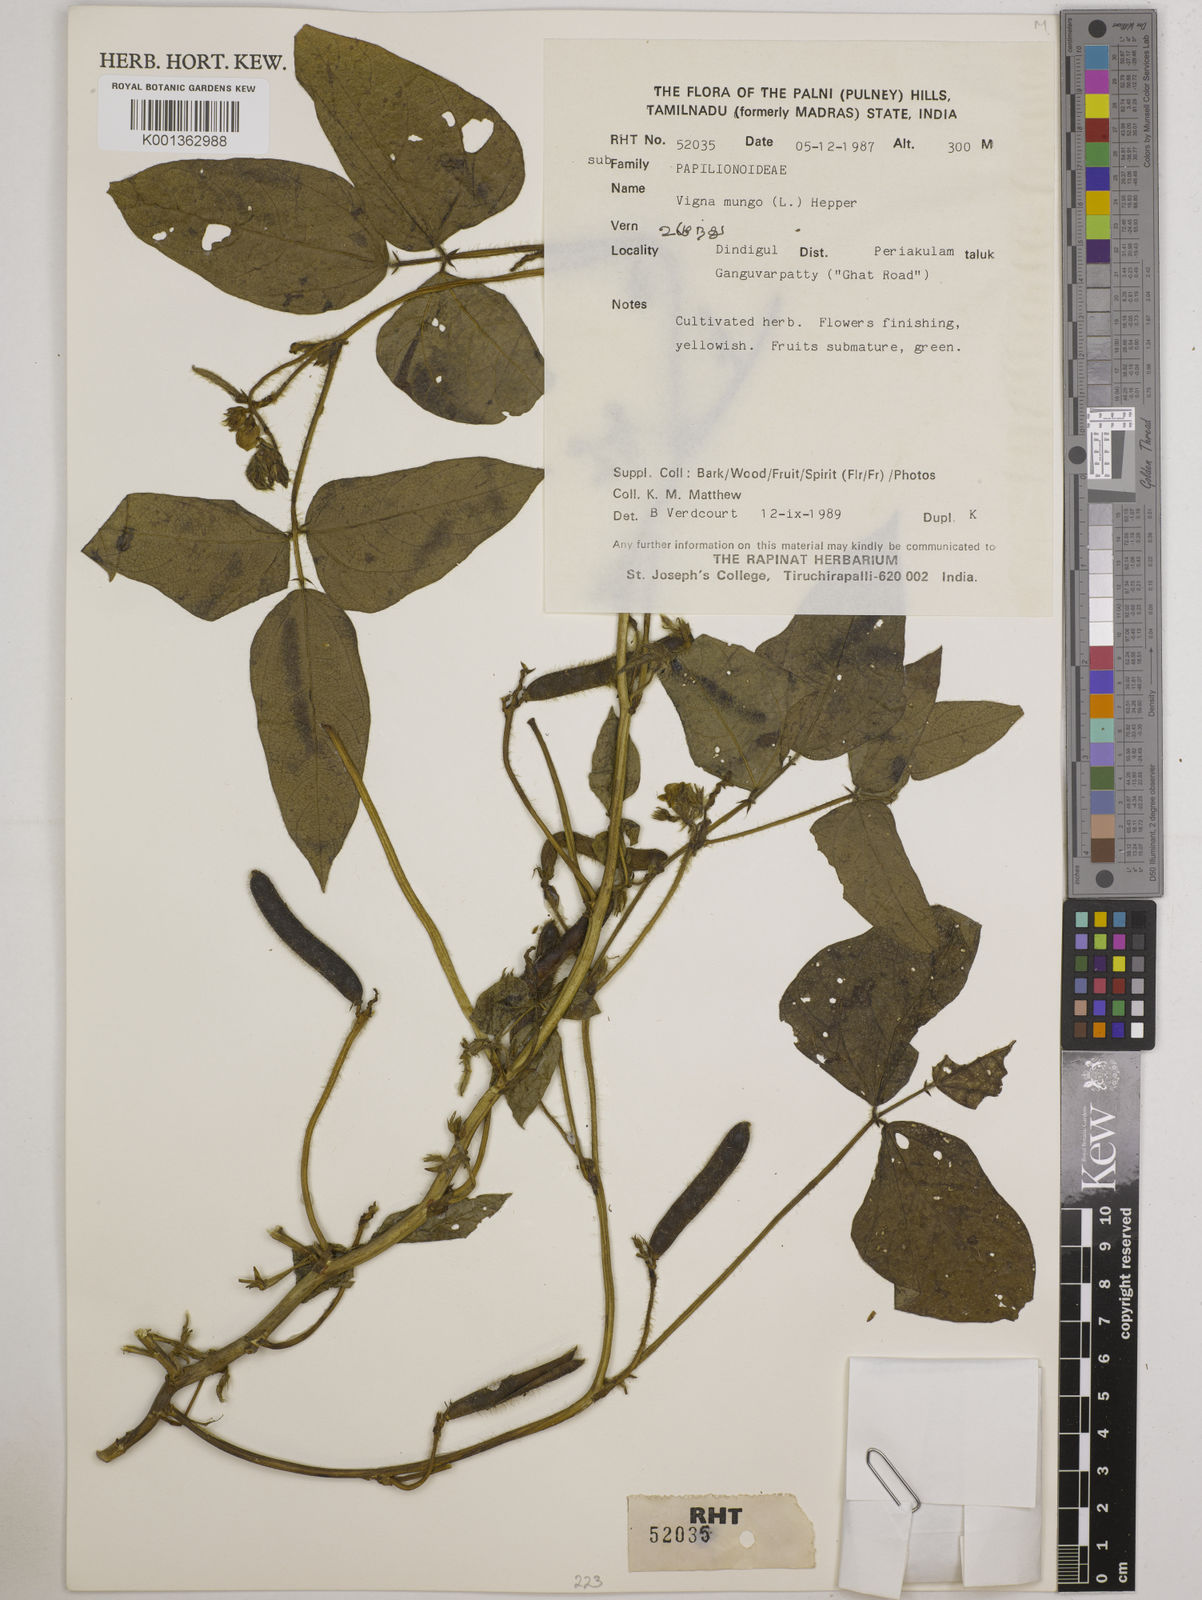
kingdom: Plantae
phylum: Tracheophyta
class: Magnoliopsida
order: Fabales
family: Fabaceae
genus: Vigna
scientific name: Vigna mungo
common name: Black gram
